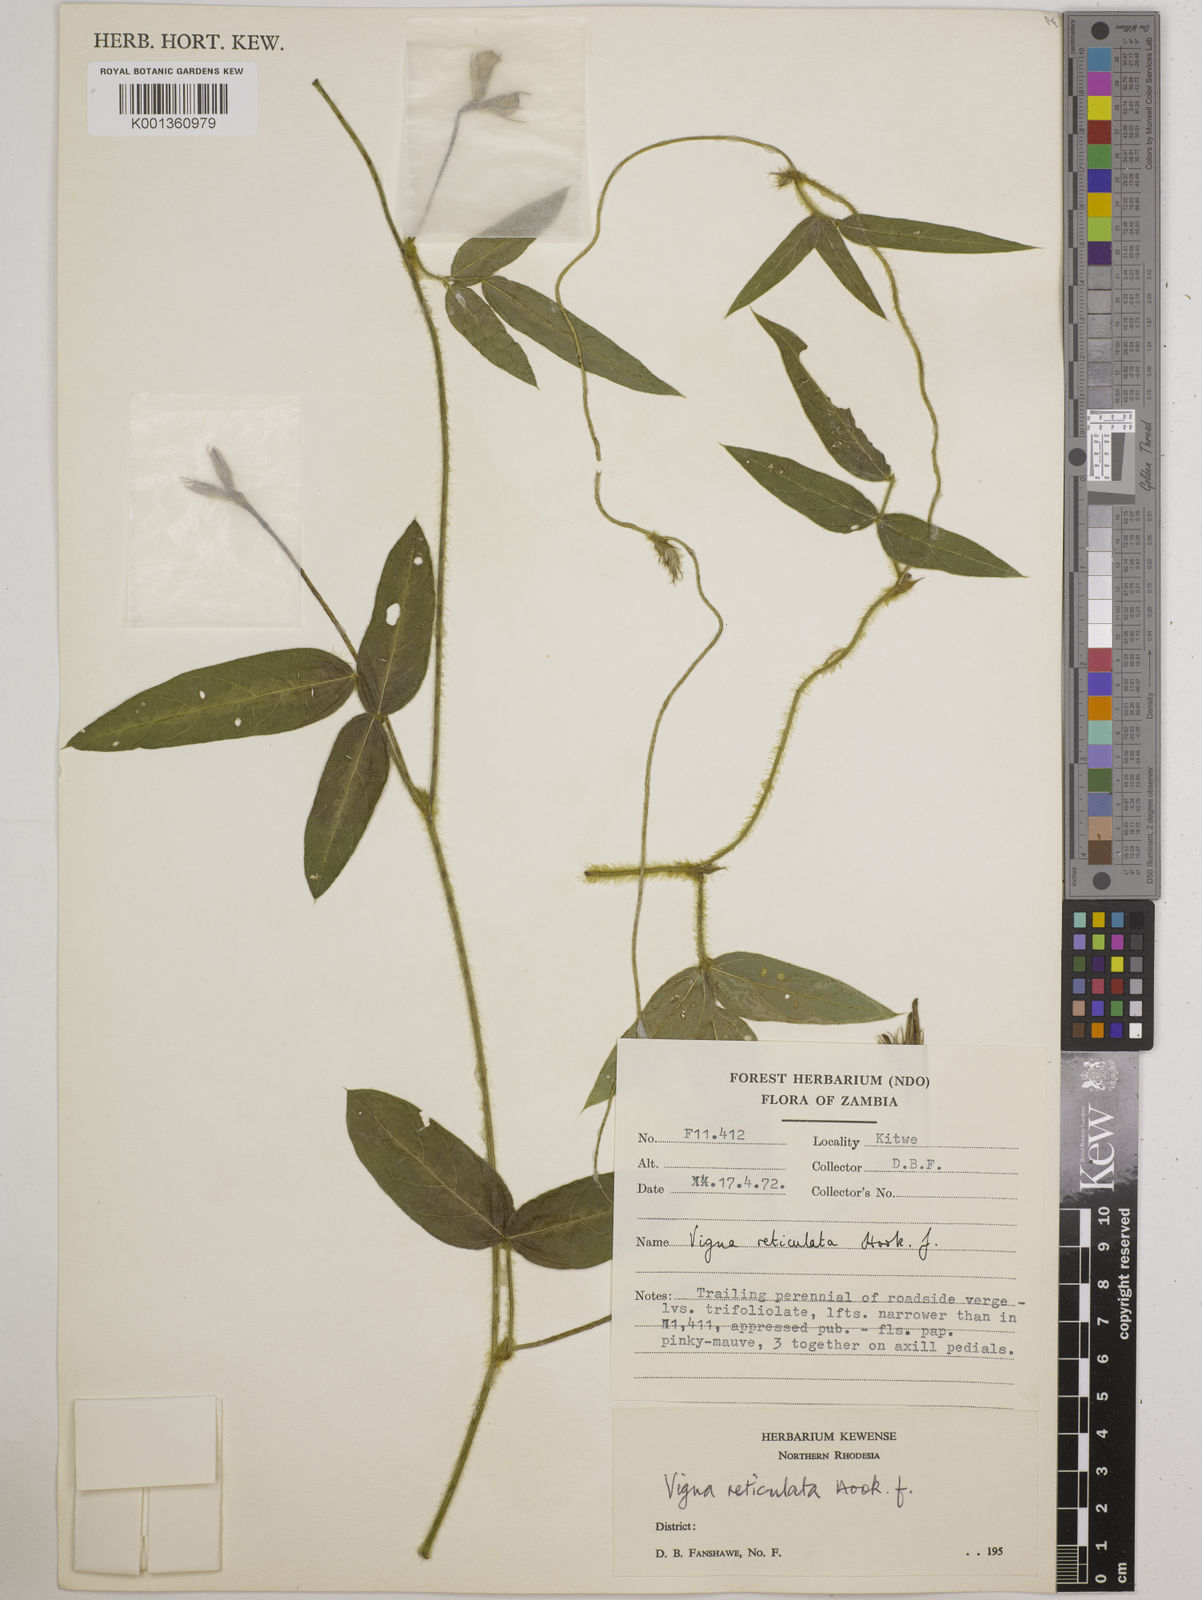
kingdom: Plantae
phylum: Tracheophyta
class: Magnoliopsida
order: Fabales
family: Fabaceae
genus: Vigna
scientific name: Vigna reticulata
